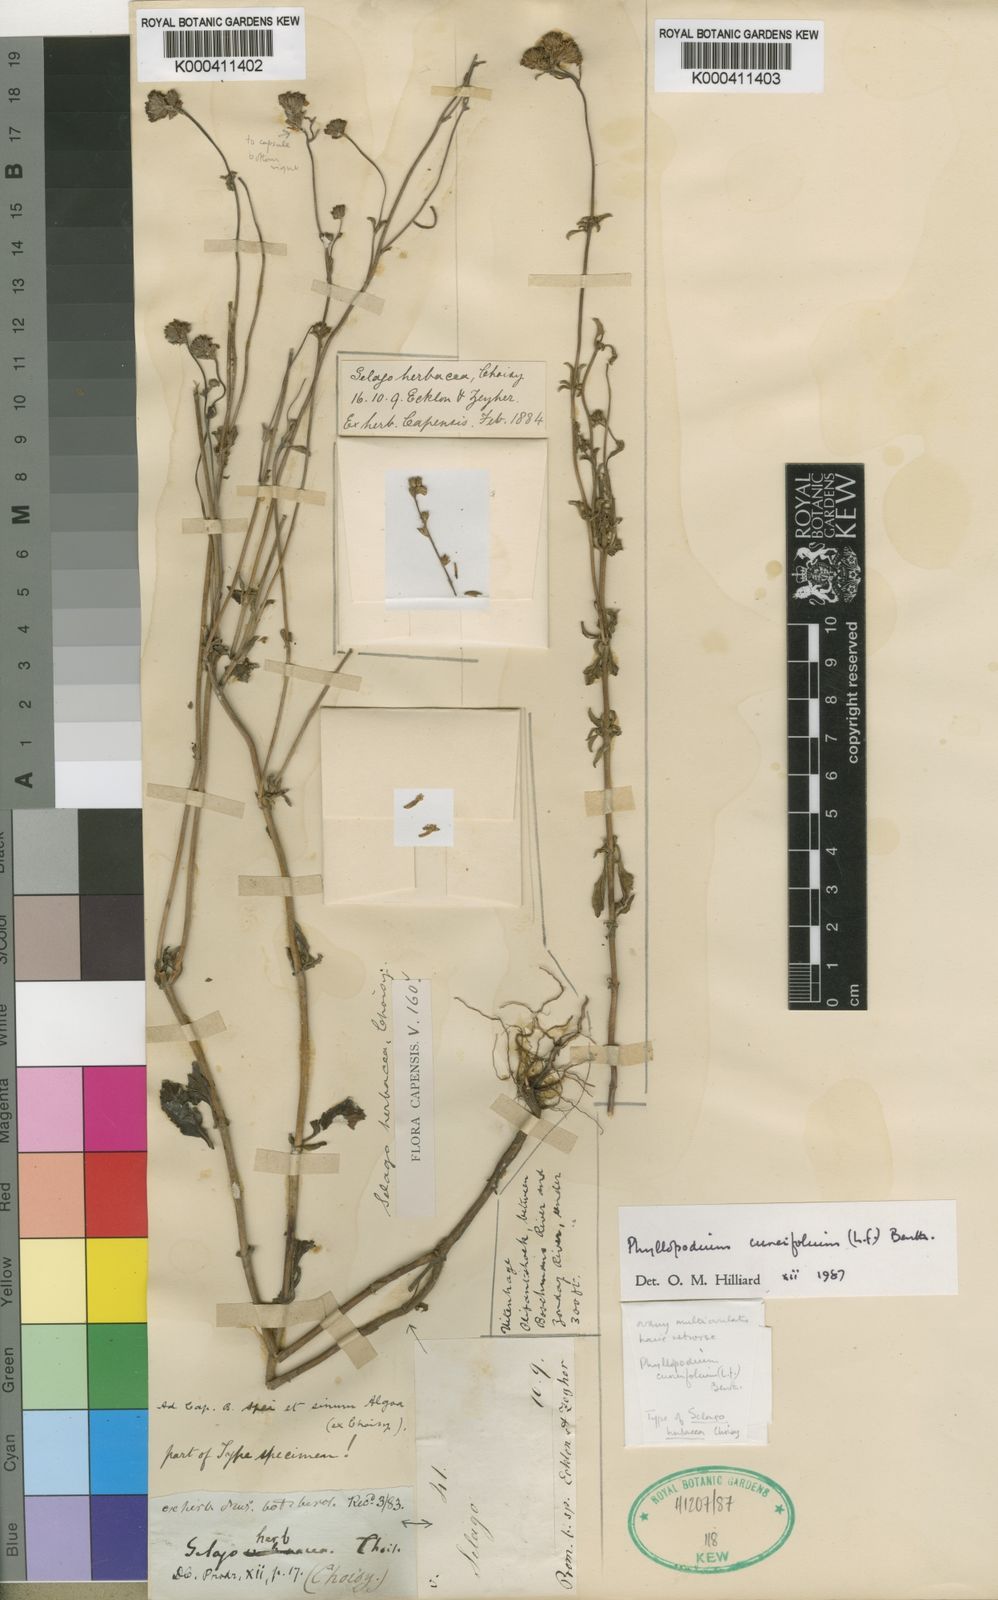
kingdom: Plantae
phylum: Tracheophyta
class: Magnoliopsida
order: Lamiales
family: Scrophulariaceae
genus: Phyllopodium
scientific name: Phyllopodium cuneifolium
